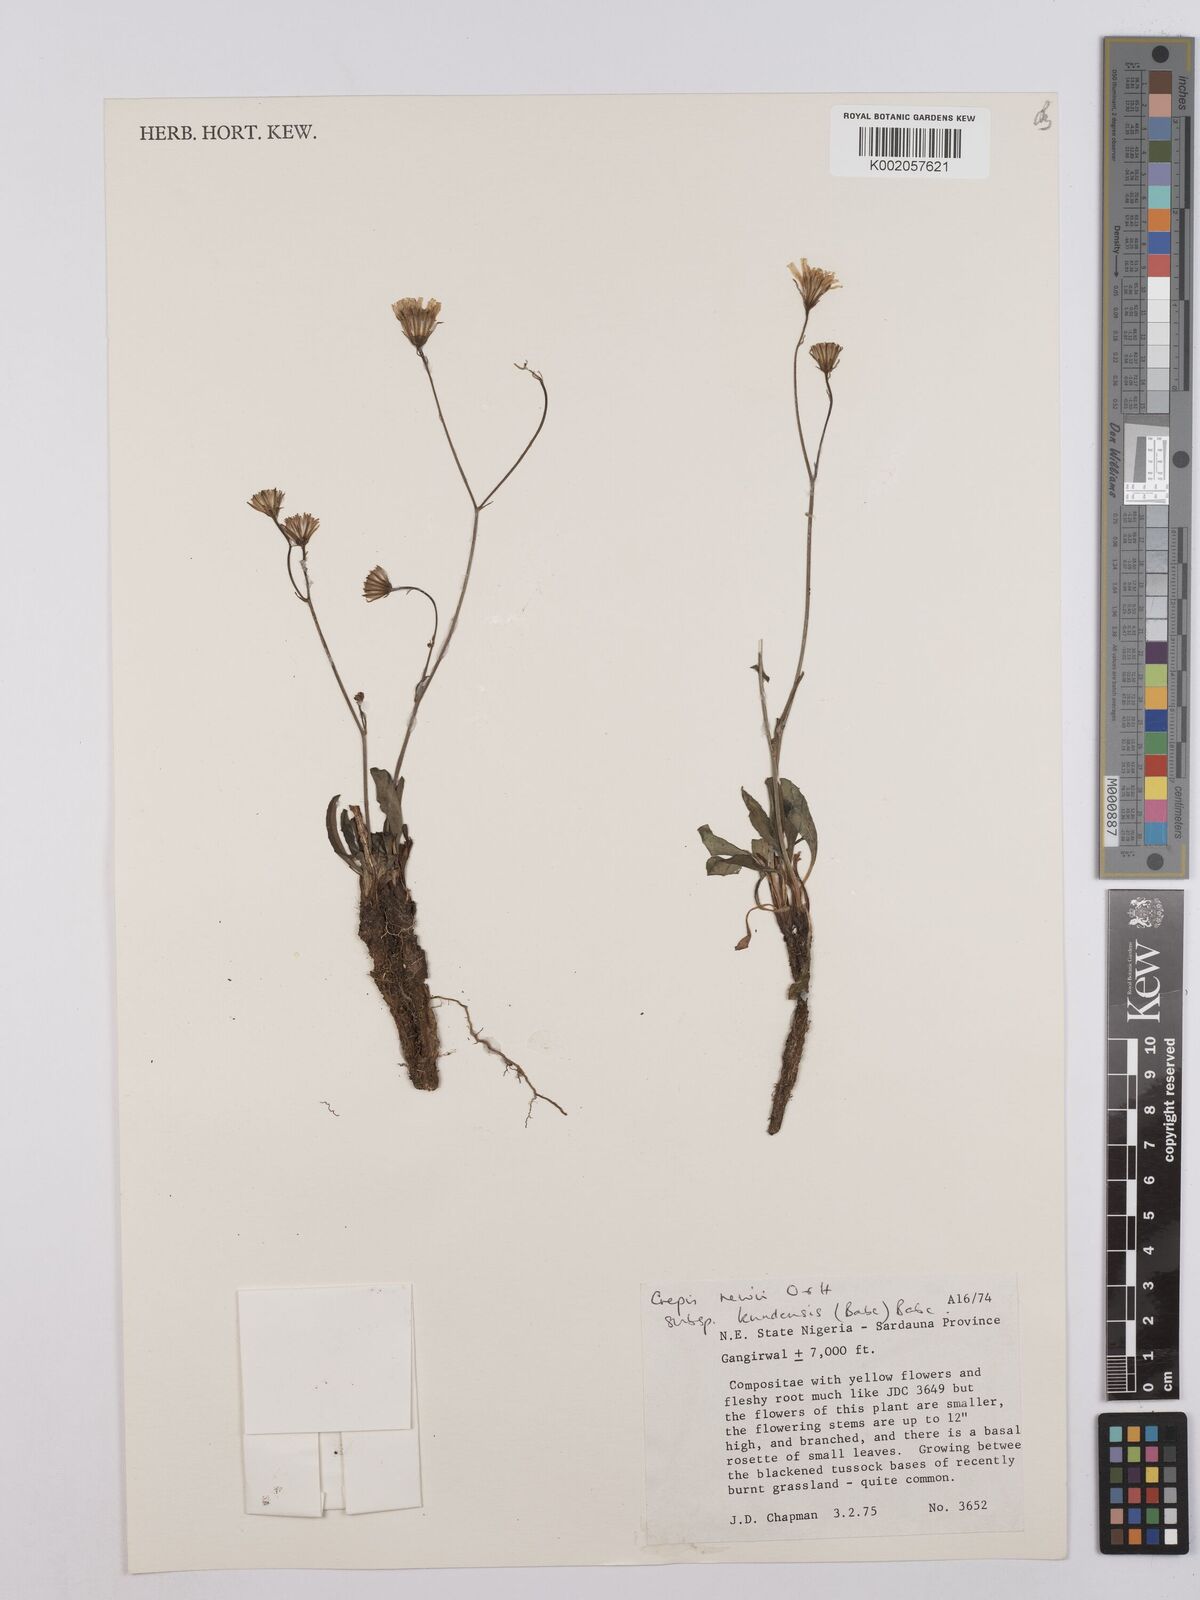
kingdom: Plantae
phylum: Tracheophyta
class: Magnoliopsida
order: Asterales
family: Asteraceae
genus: Crepis
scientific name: Crepis hypochoeridea
